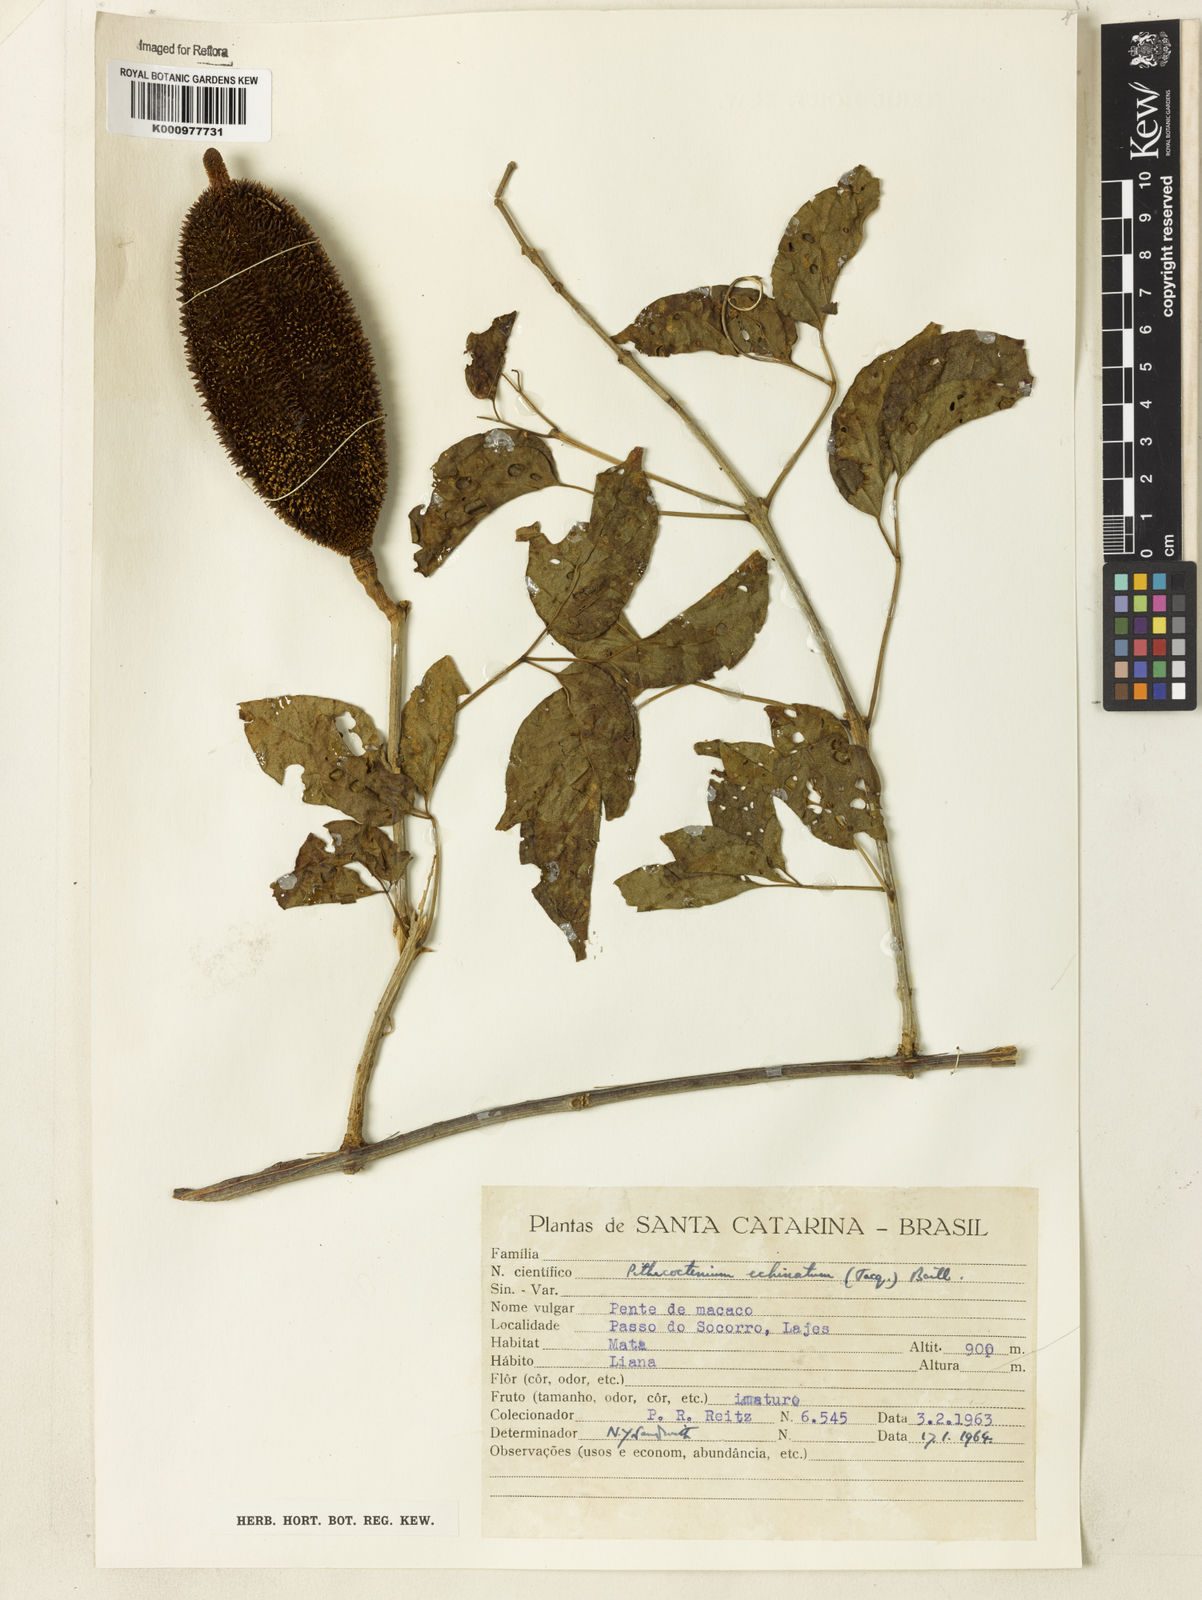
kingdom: Plantae
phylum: Tracheophyta
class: Magnoliopsida
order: Lamiales
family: Bignoniaceae
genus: Amphilophium
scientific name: Amphilophium crucigerum
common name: Monkey comb
